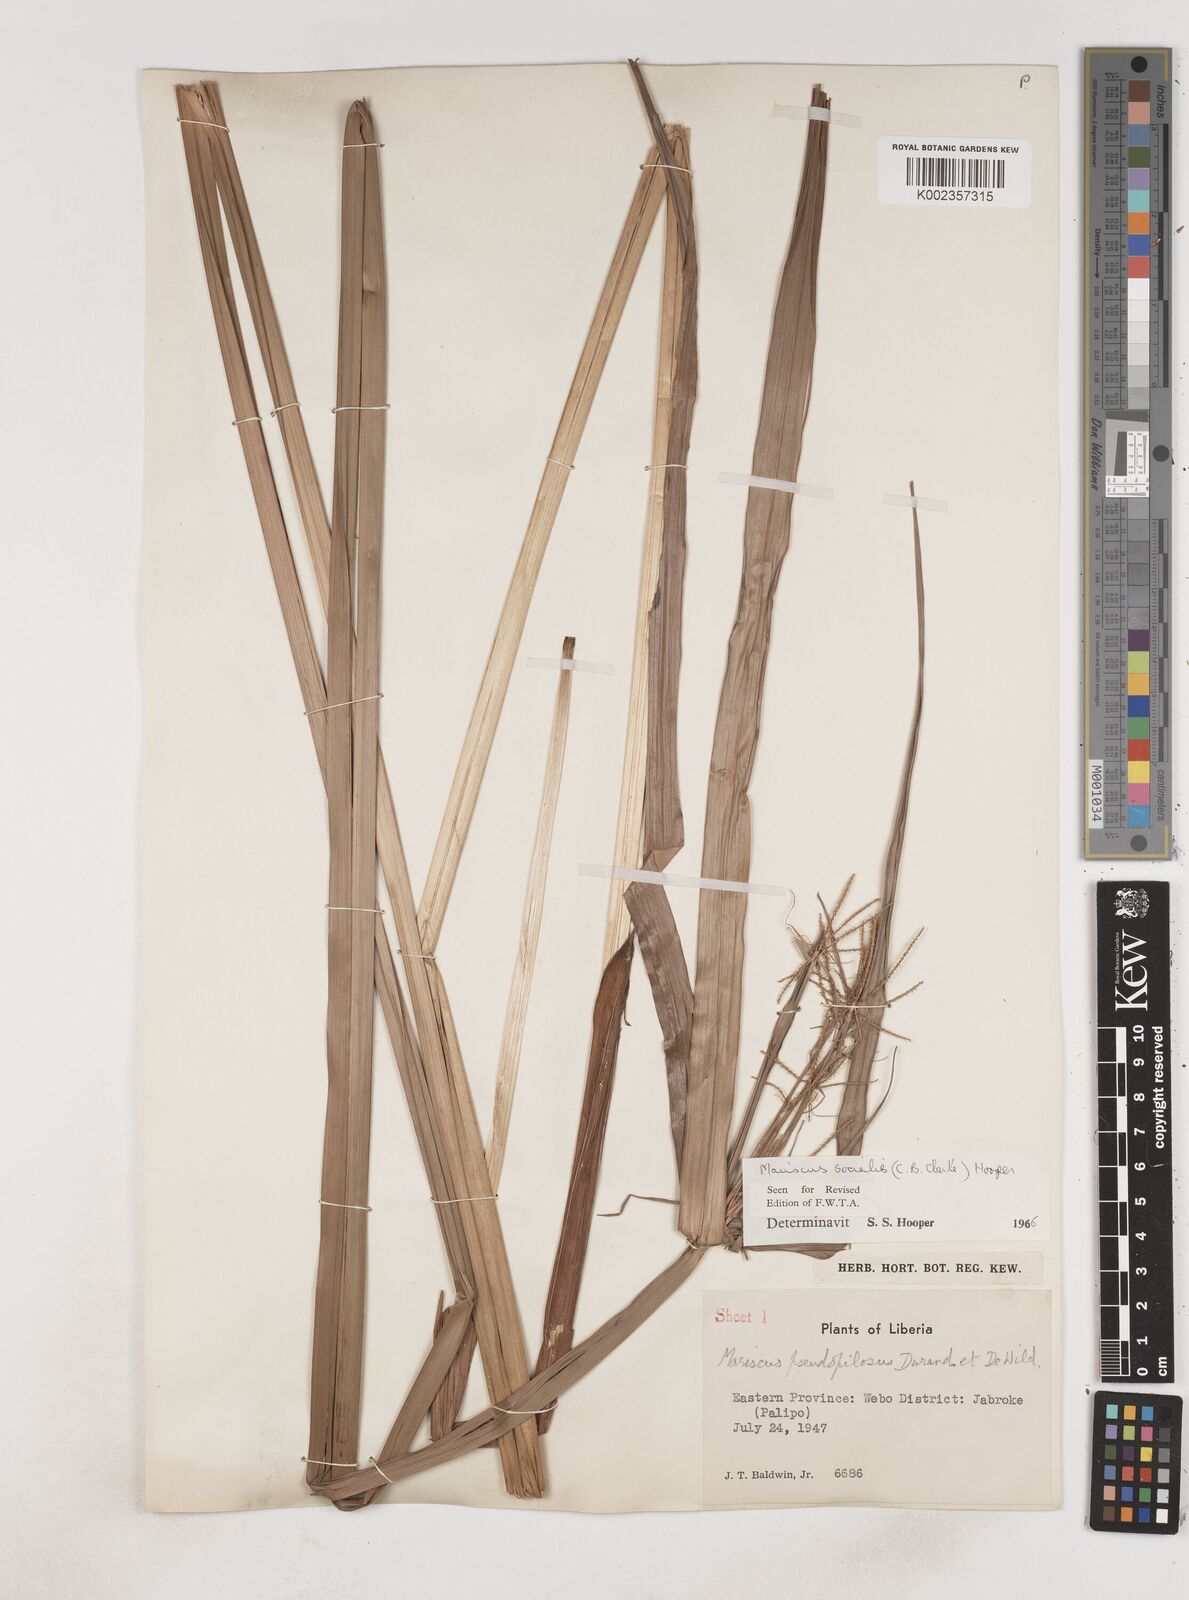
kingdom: Plantae
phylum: Tracheophyta
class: Liliopsida
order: Poales
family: Cyperaceae
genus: Cyperus
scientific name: Cyperus pseudopilosus
